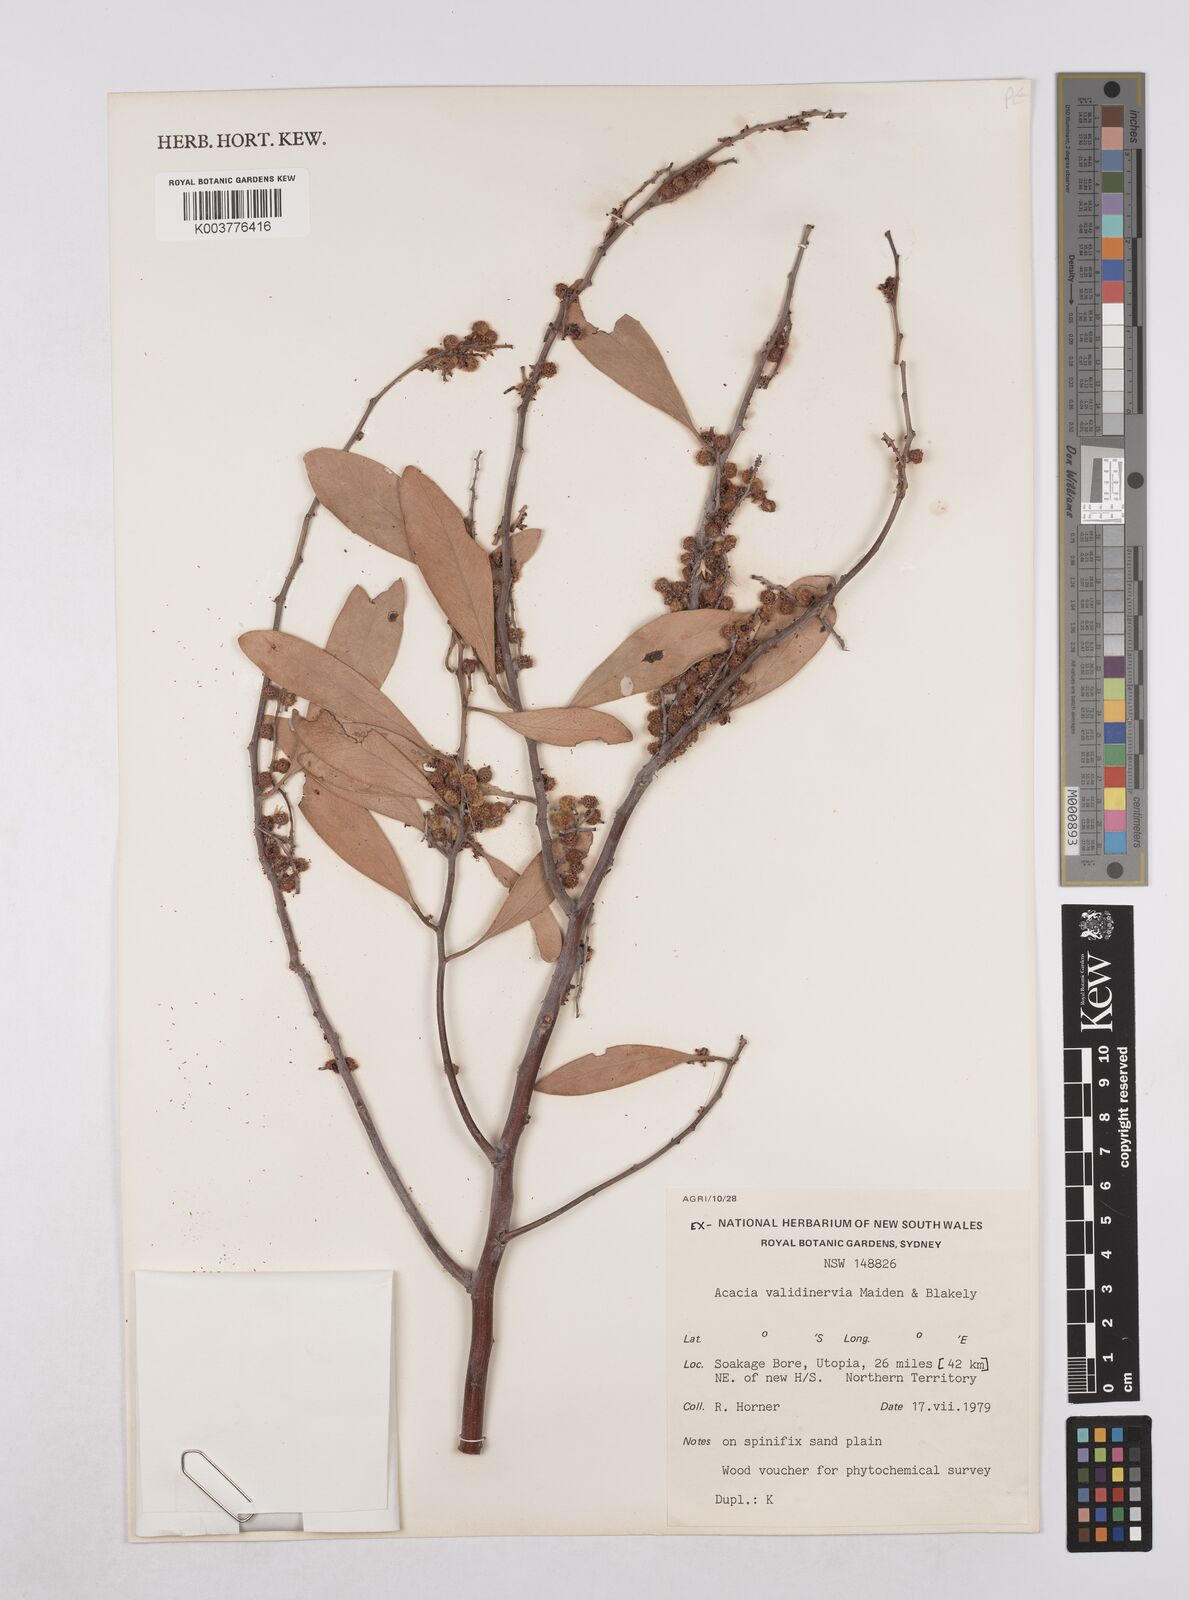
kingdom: Plantae
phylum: Tracheophyta
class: Magnoliopsida
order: Fabales
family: Fabaceae
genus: Acacia
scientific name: Acacia validinervia
